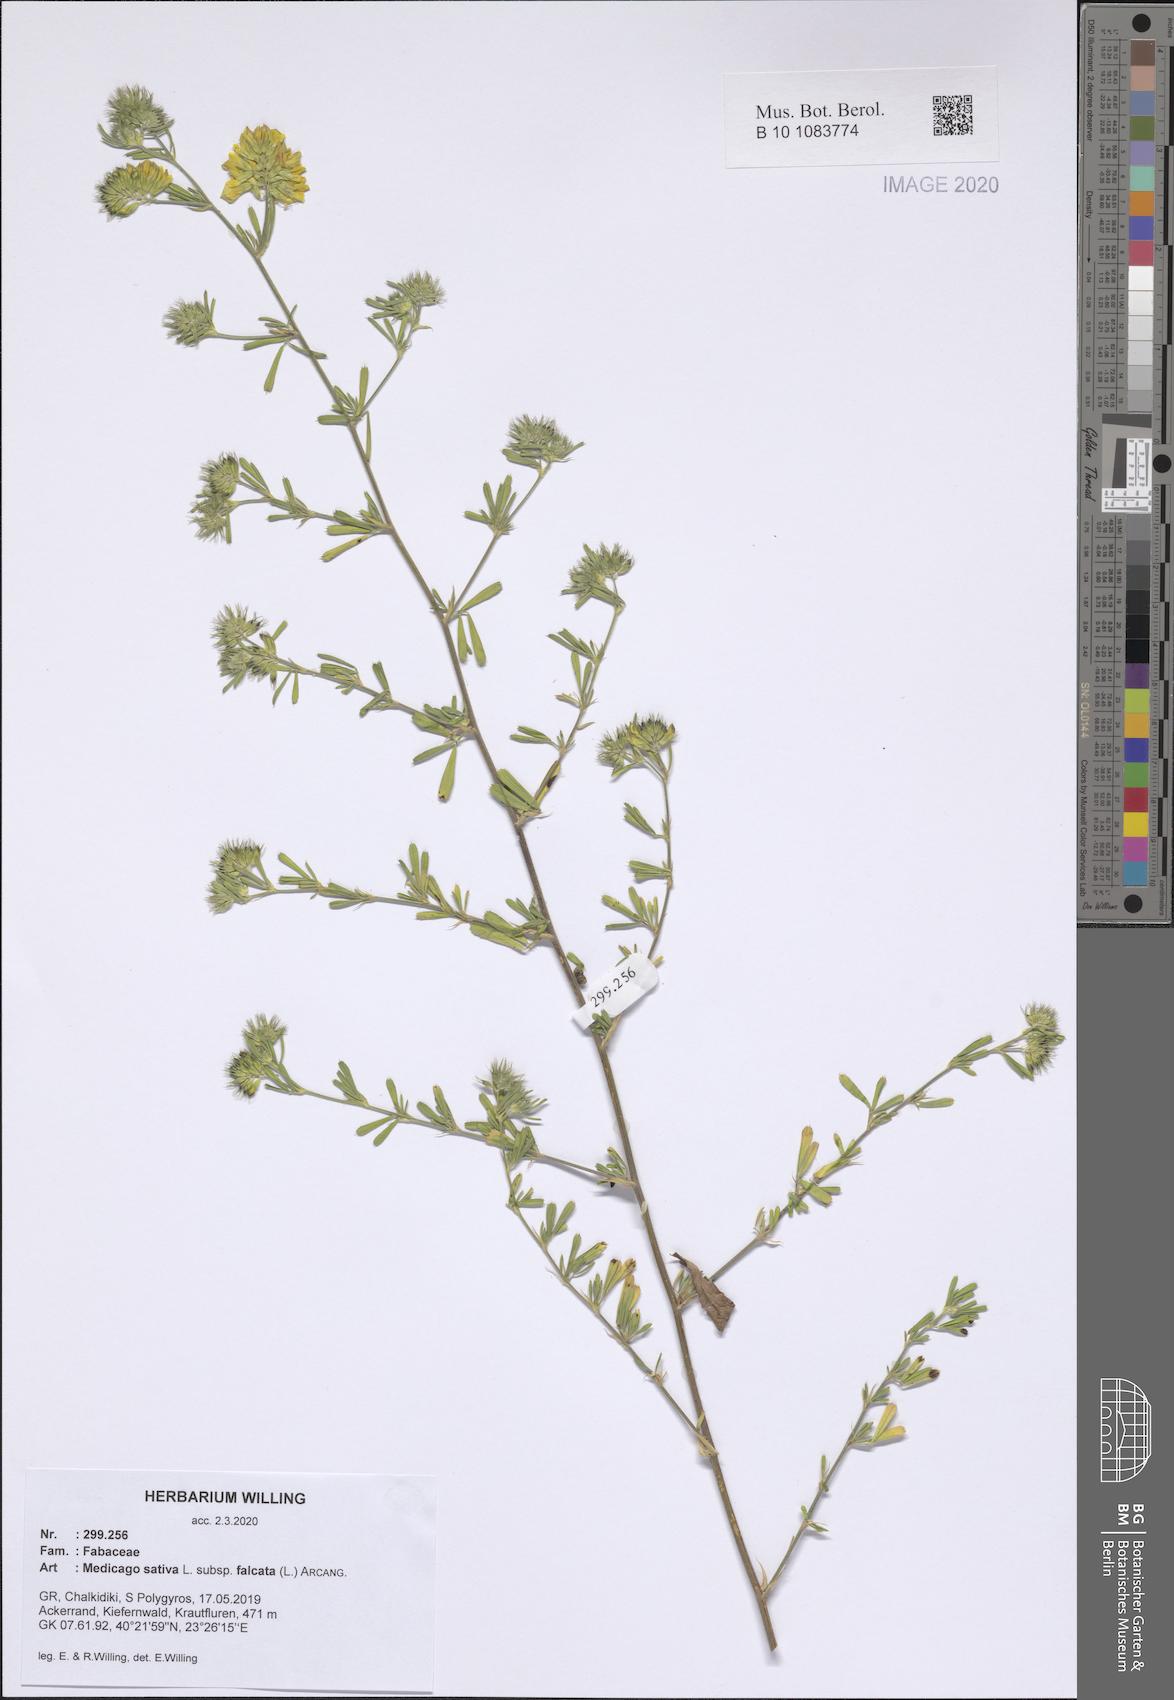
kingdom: Plantae
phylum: Tracheophyta
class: Magnoliopsida
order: Fabales
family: Fabaceae
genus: Medicago
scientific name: Medicago falcata
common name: Sickle medick
